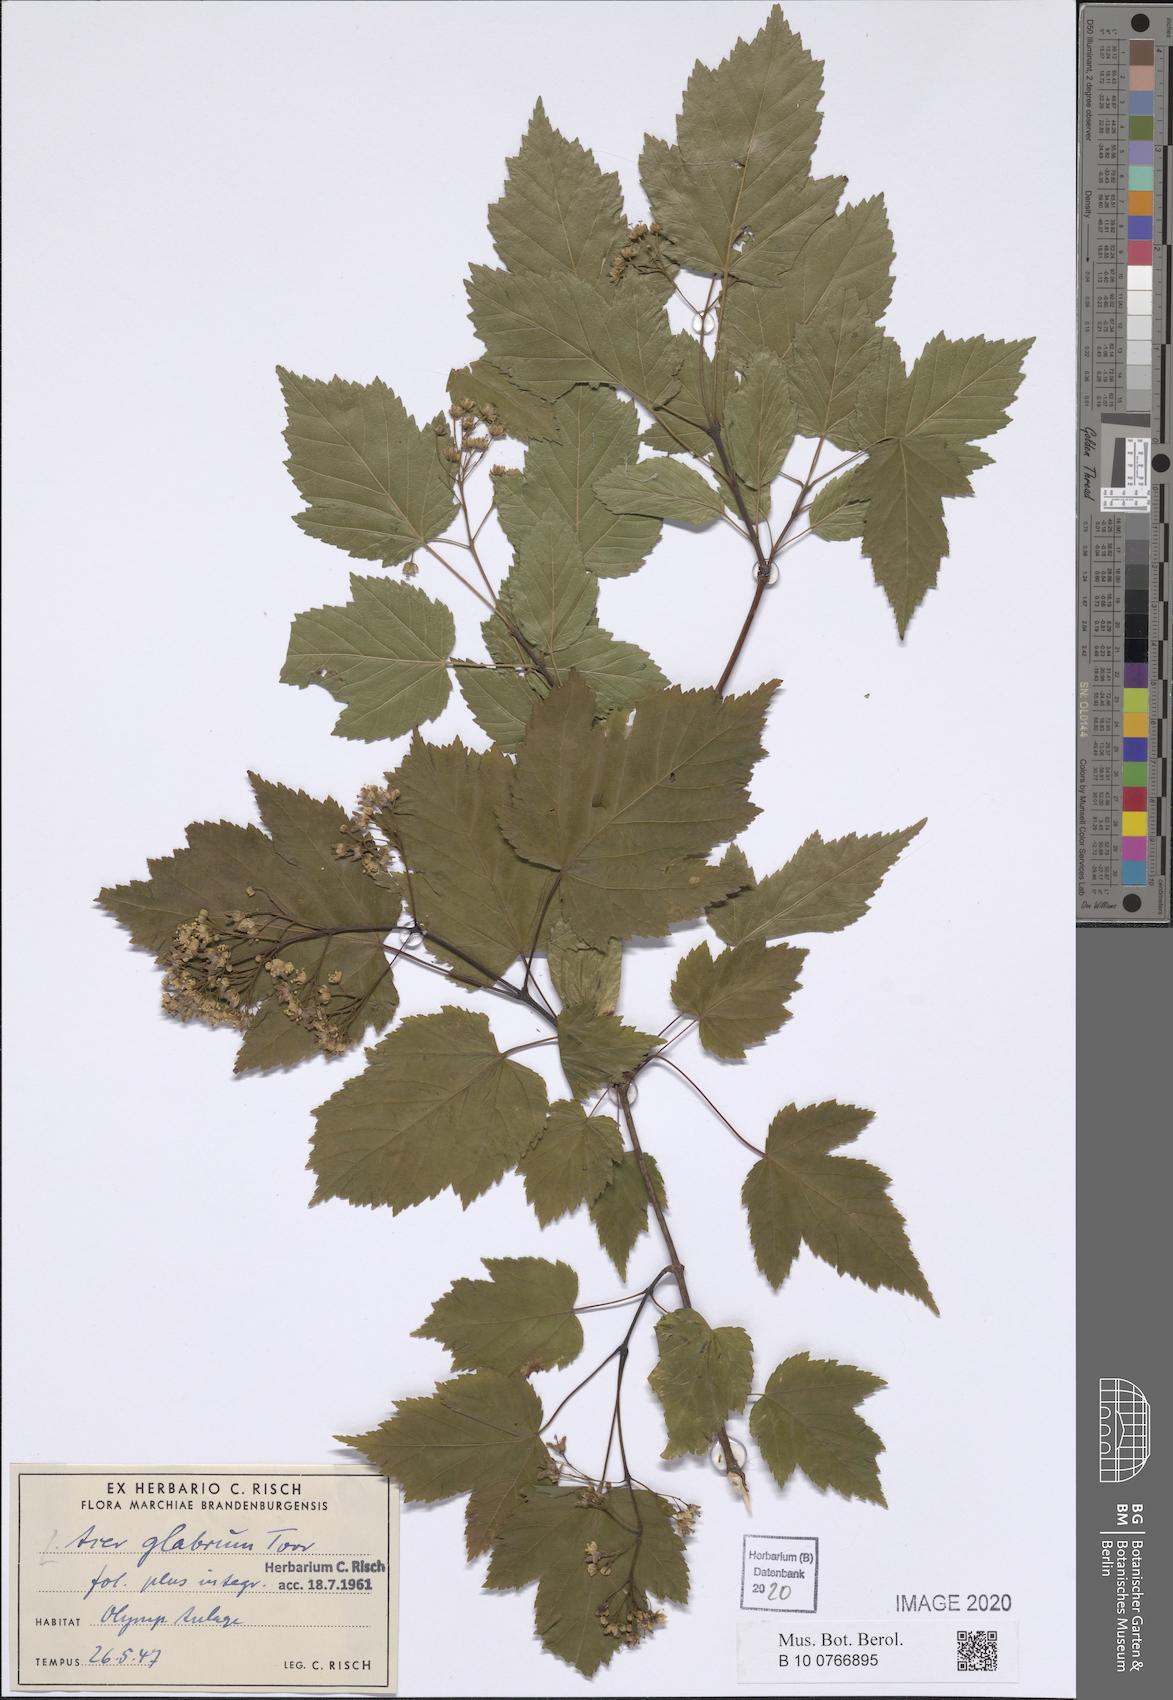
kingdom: Plantae
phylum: Tracheophyta
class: Magnoliopsida
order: Sapindales
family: Sapindaceae
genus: Acer
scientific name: Acer glabrum
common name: Rocky mountain maple
